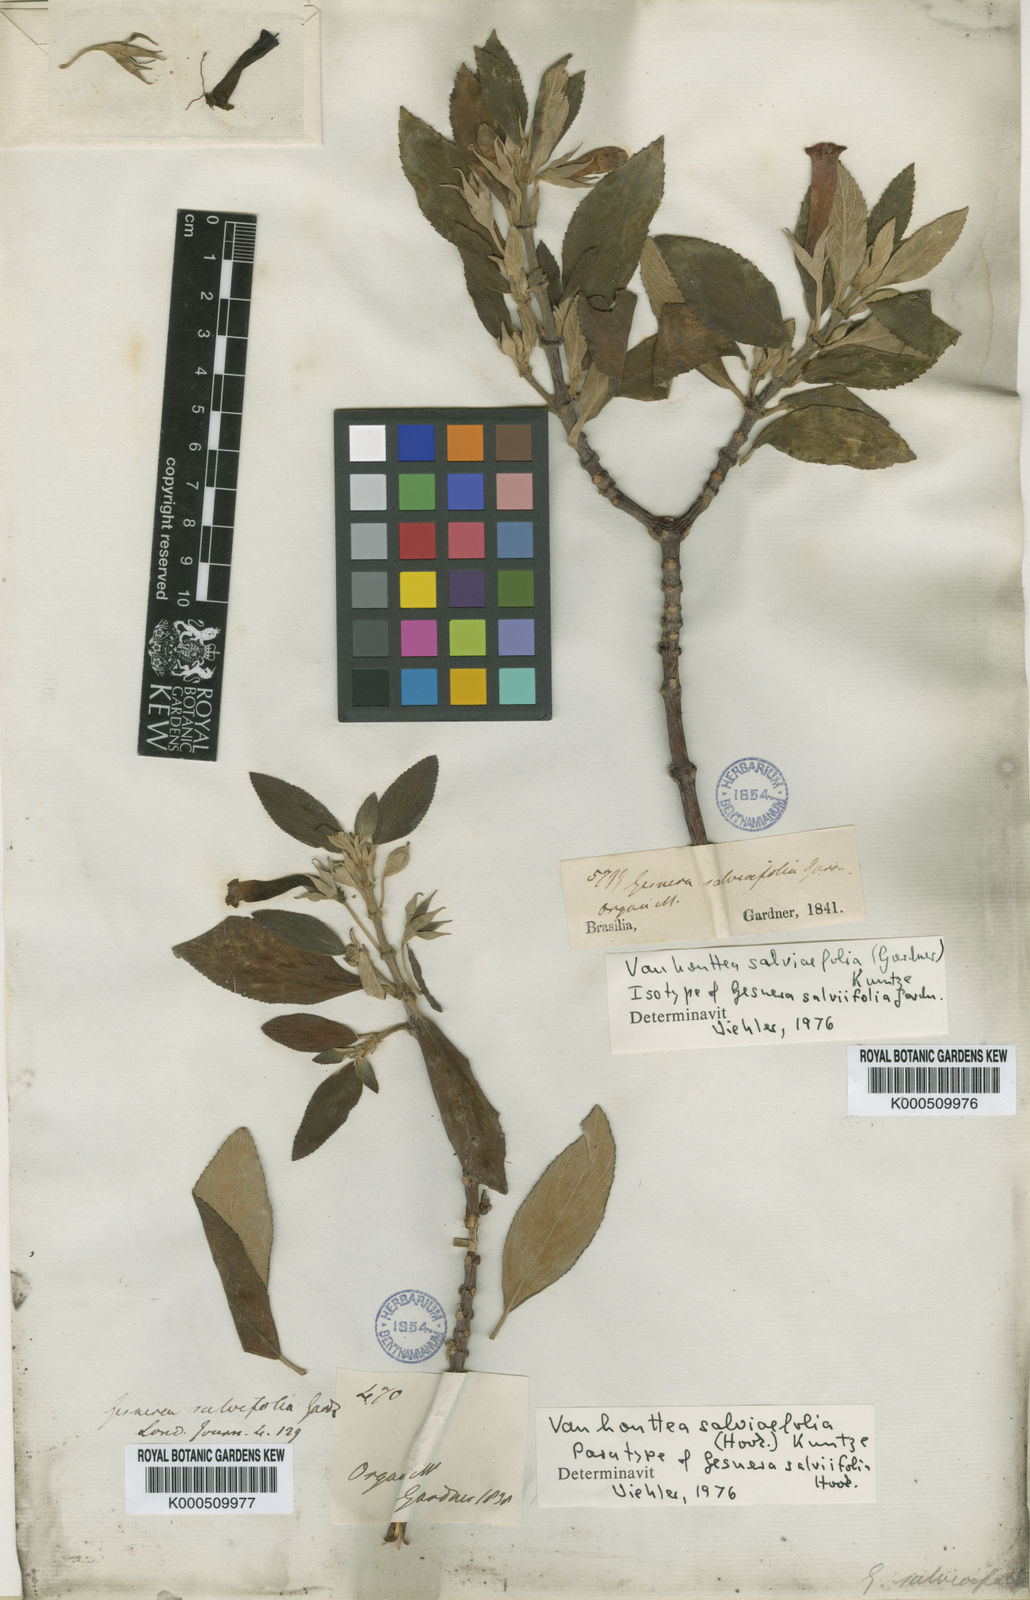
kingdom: Plantae
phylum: Tracheophyta
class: Magnoliopsida
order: Lamiales
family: Gesneriaceae
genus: Vanhouttea
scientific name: Vanhouttea calcarata
